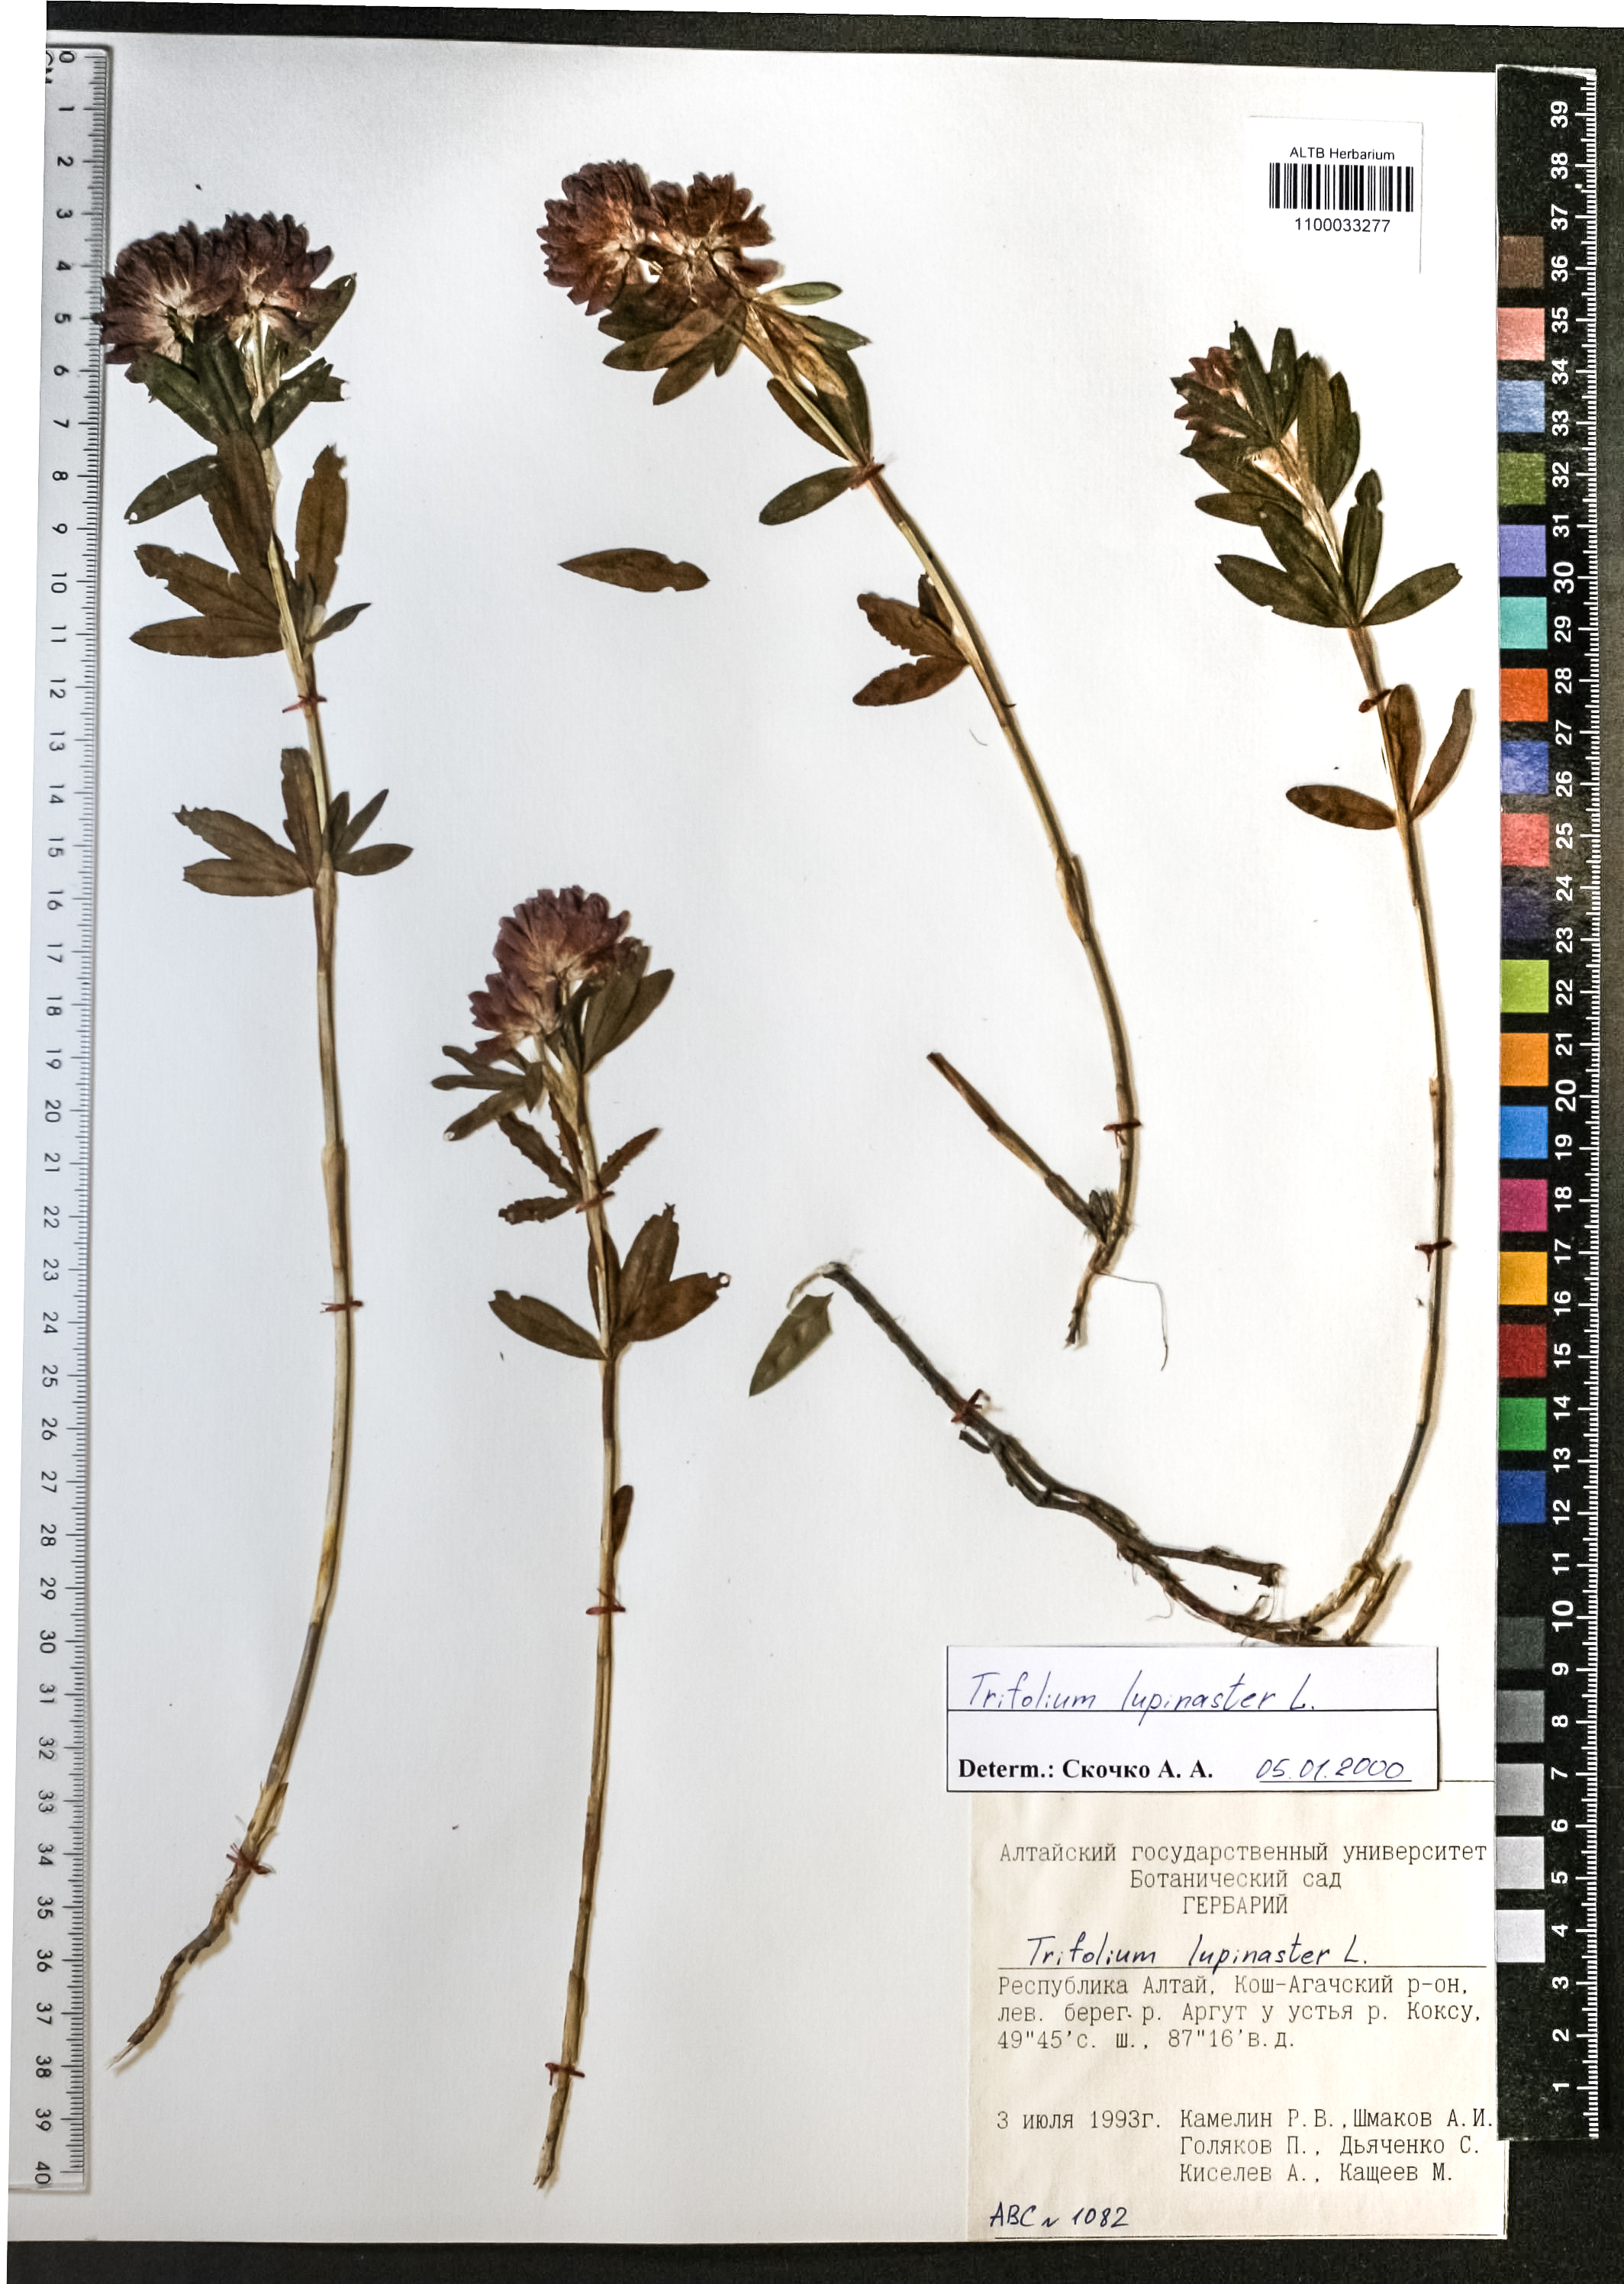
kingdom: Plantae
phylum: Tracheophyta
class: Magnoliopsida
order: Fabales
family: Fabaceae
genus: Trifolium
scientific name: Trifolium lupinaster
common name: Lupine clover
